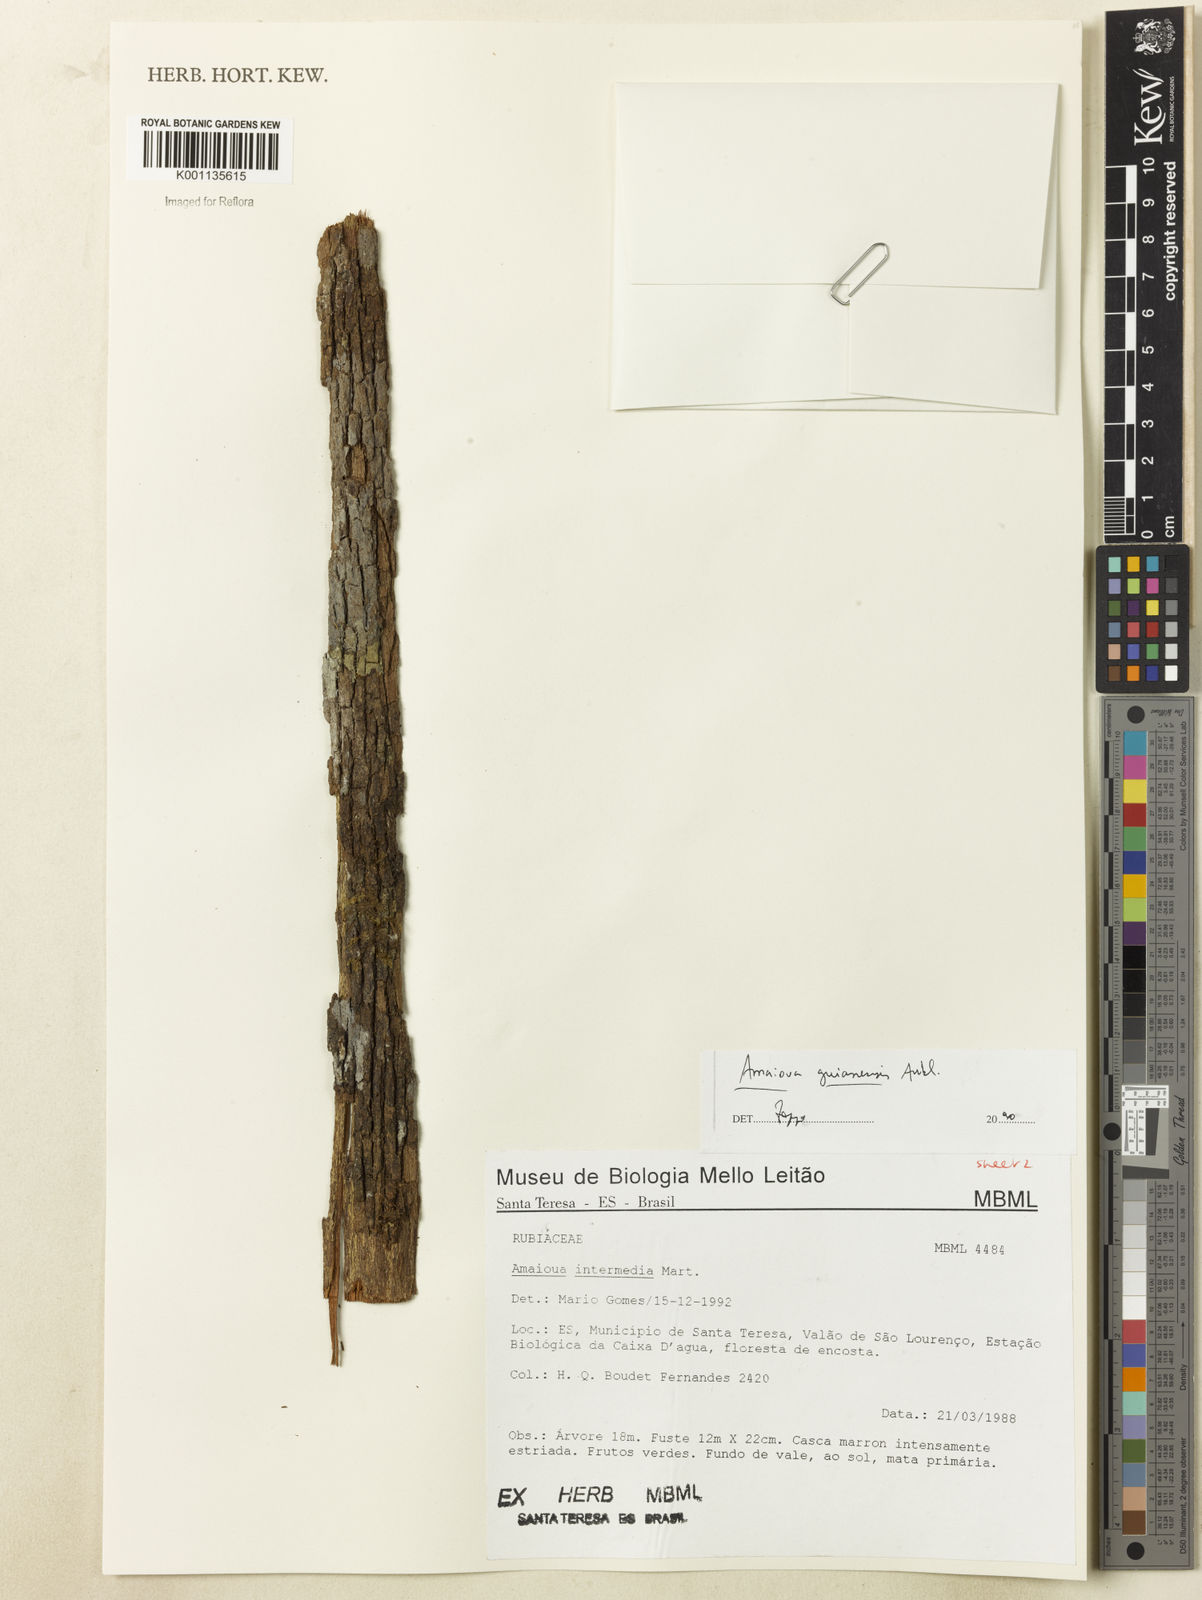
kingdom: Plantae
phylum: Tracheophyta
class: Magnoliopsida
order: Gentianales
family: Rubiaceae
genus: Amaioua
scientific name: Amaioua intermedia
